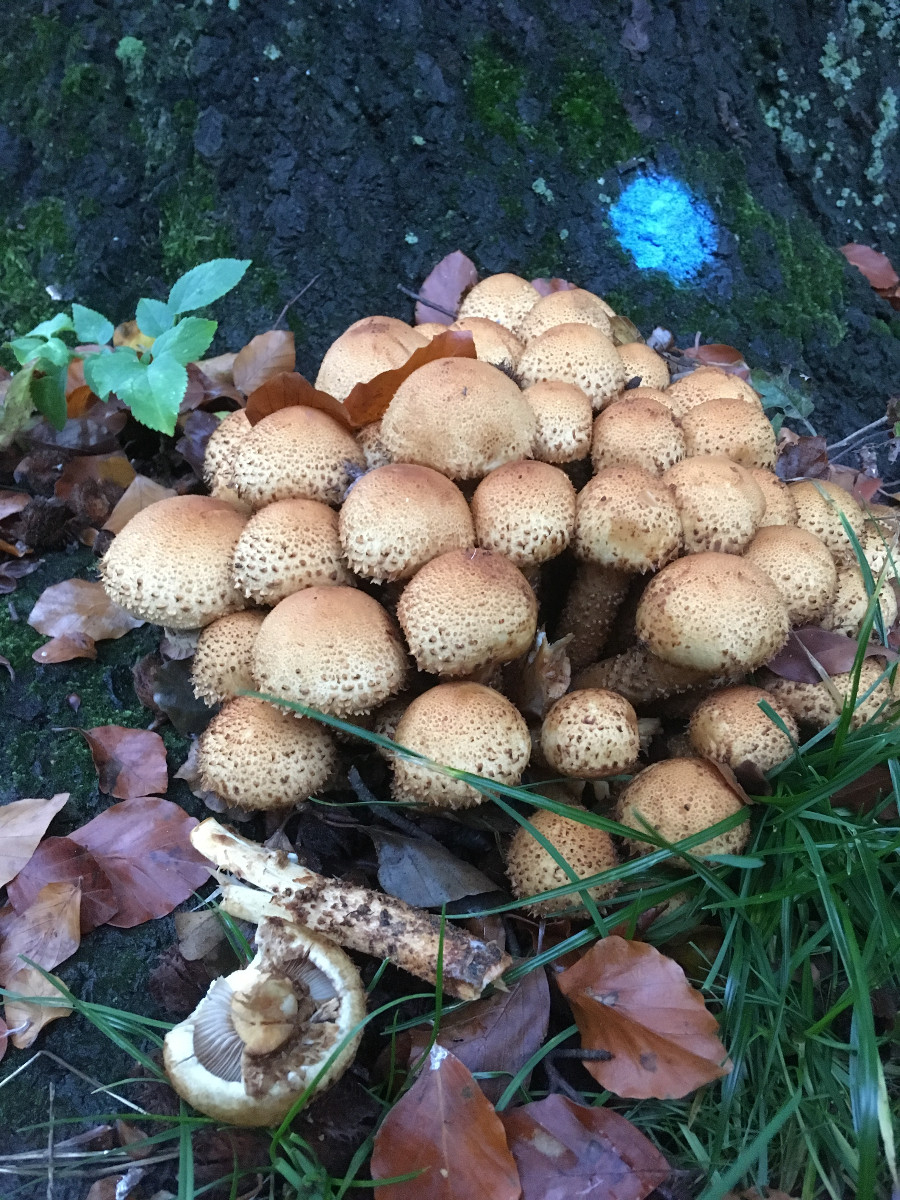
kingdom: Fungi
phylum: Basidiomycota
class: Agaricomycetes
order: Agaricales
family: Strophariaceae
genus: Pholiota
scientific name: Pholiota squarrosa
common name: krumskællet skælhat
